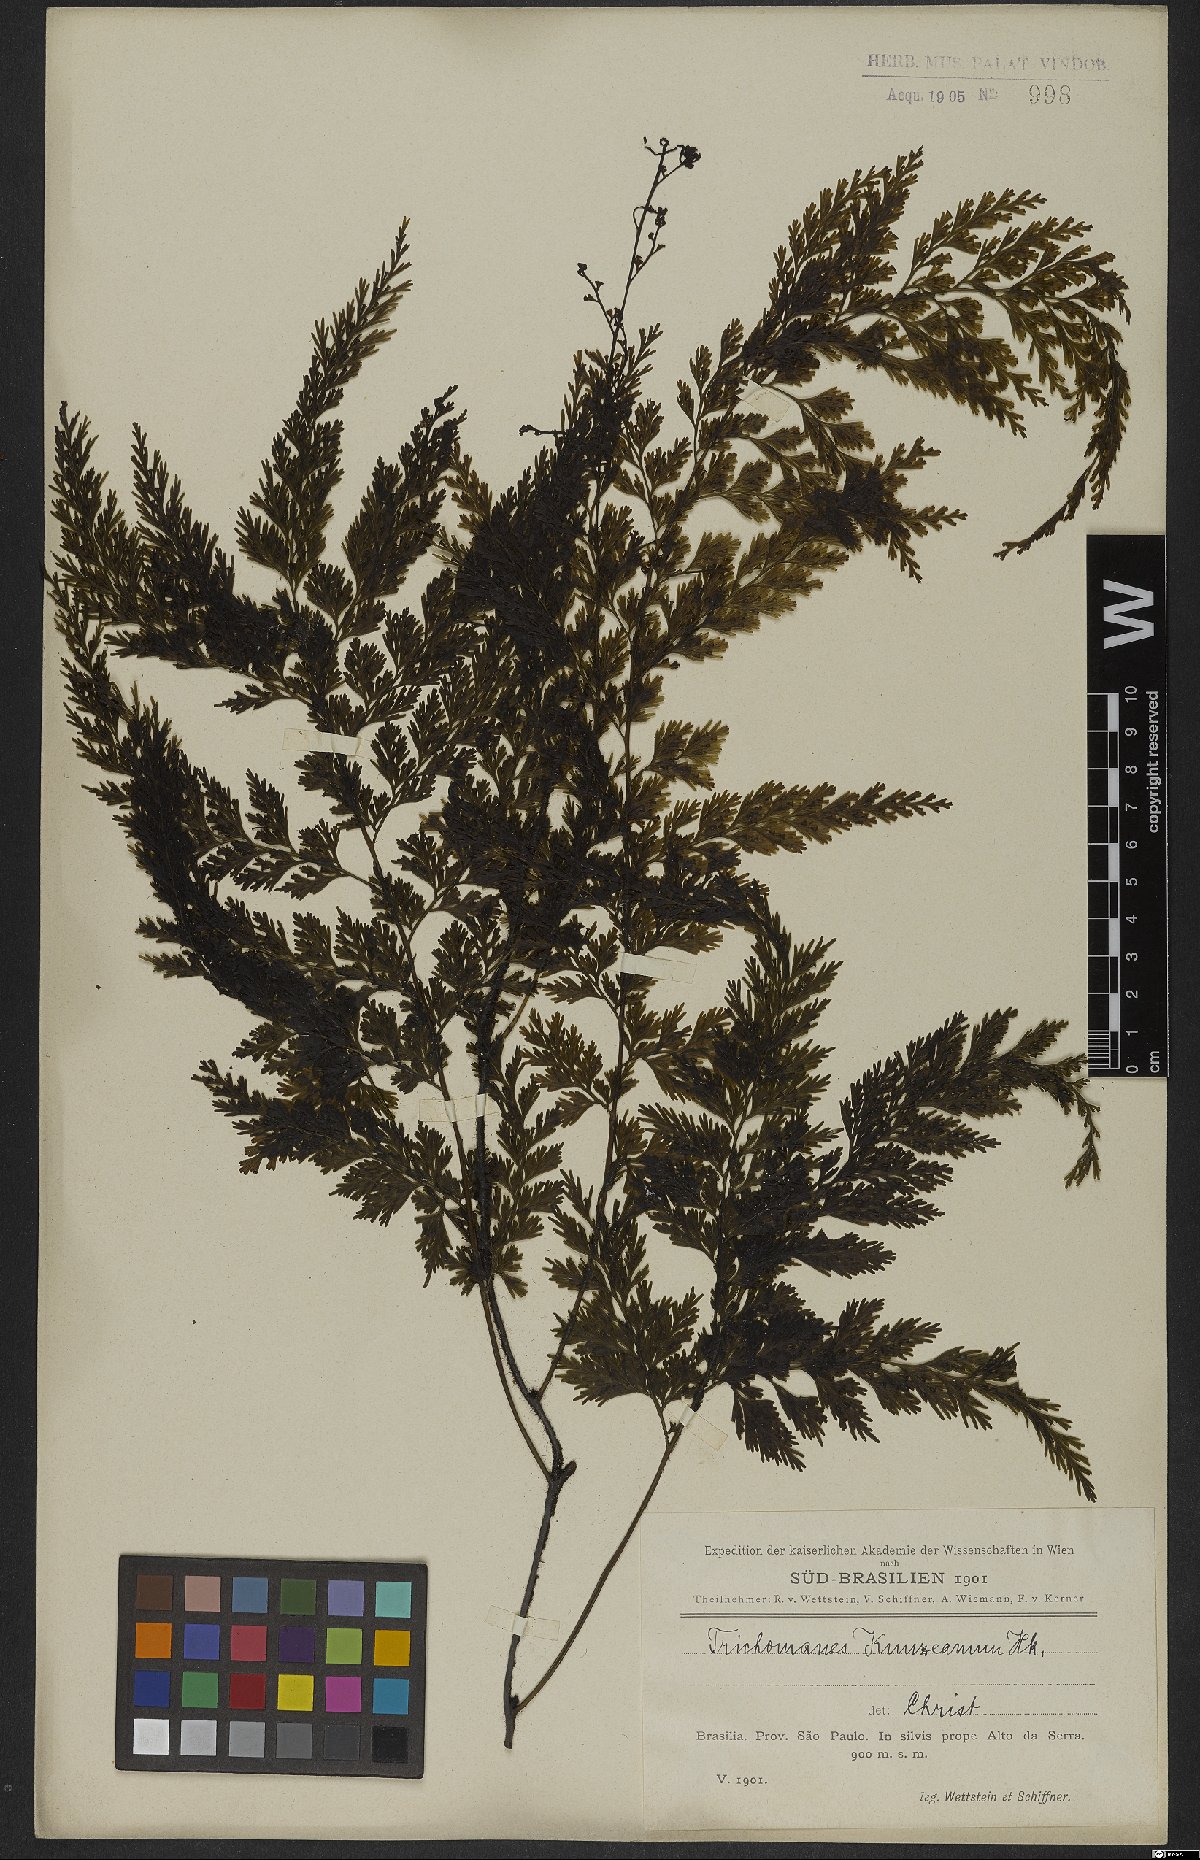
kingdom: Plantae
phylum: Tracheophyta
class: Polypodiopsida
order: Hymenophyllales
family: Hymenophyllaceae
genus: Vandenboschia
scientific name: Vandenboschia radicans
